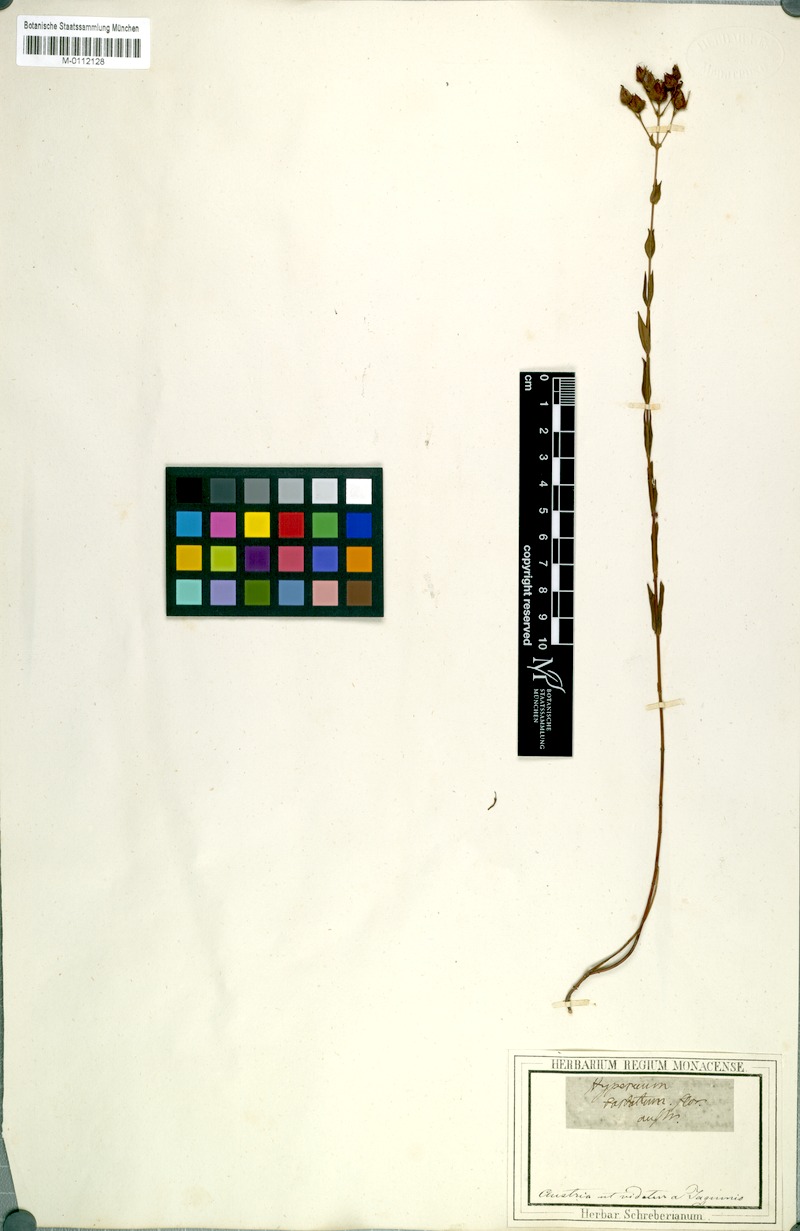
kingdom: Plantae
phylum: Tracheophyta
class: Magnoliopsida
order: Malpighiales
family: Hypericaceae
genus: Hypericum
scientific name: Hypericum barbatum
